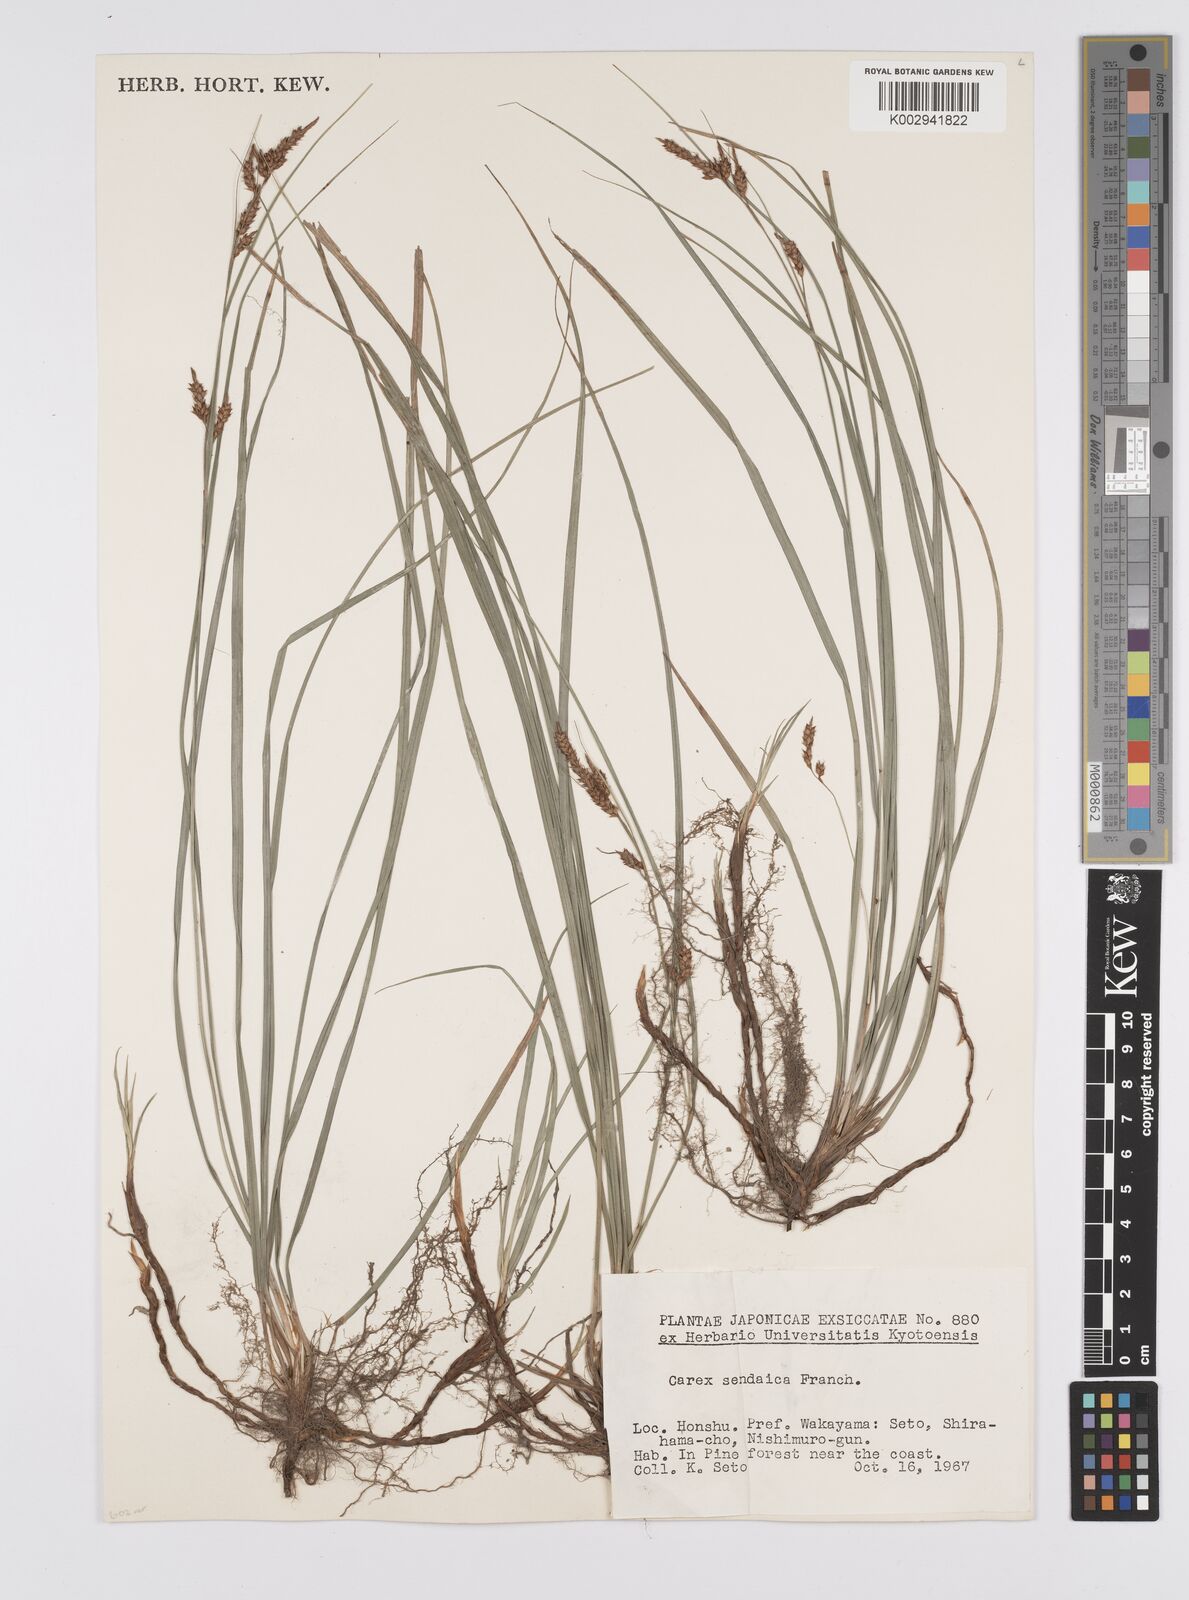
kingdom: Plantae
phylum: Tracheophyta
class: Liliopsida
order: Poales
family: Cyperaceae
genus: Carex
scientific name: Carex brunnea
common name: Greater brown sedge
